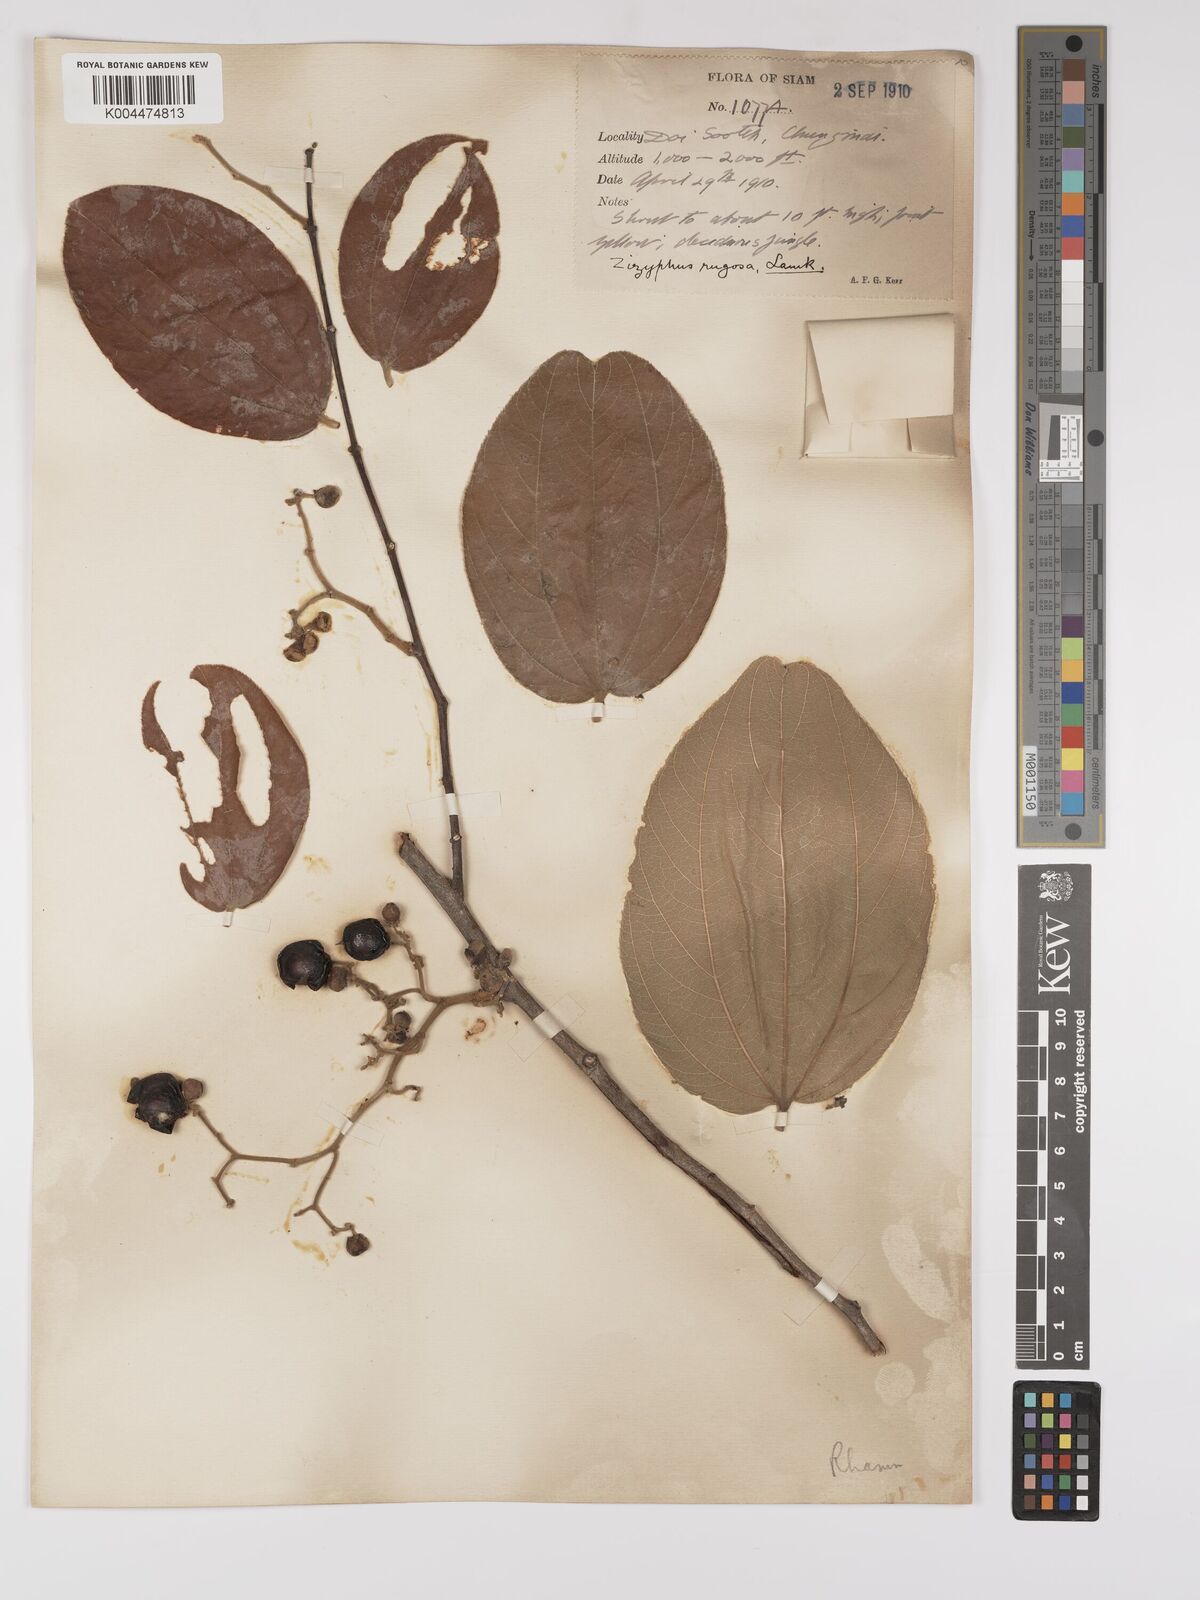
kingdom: Plantae
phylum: Tracheophyta
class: Magnoliopsida
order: Rosales
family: Rhamnaceae
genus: Ziziphus
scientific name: Ziziphus rugosa
